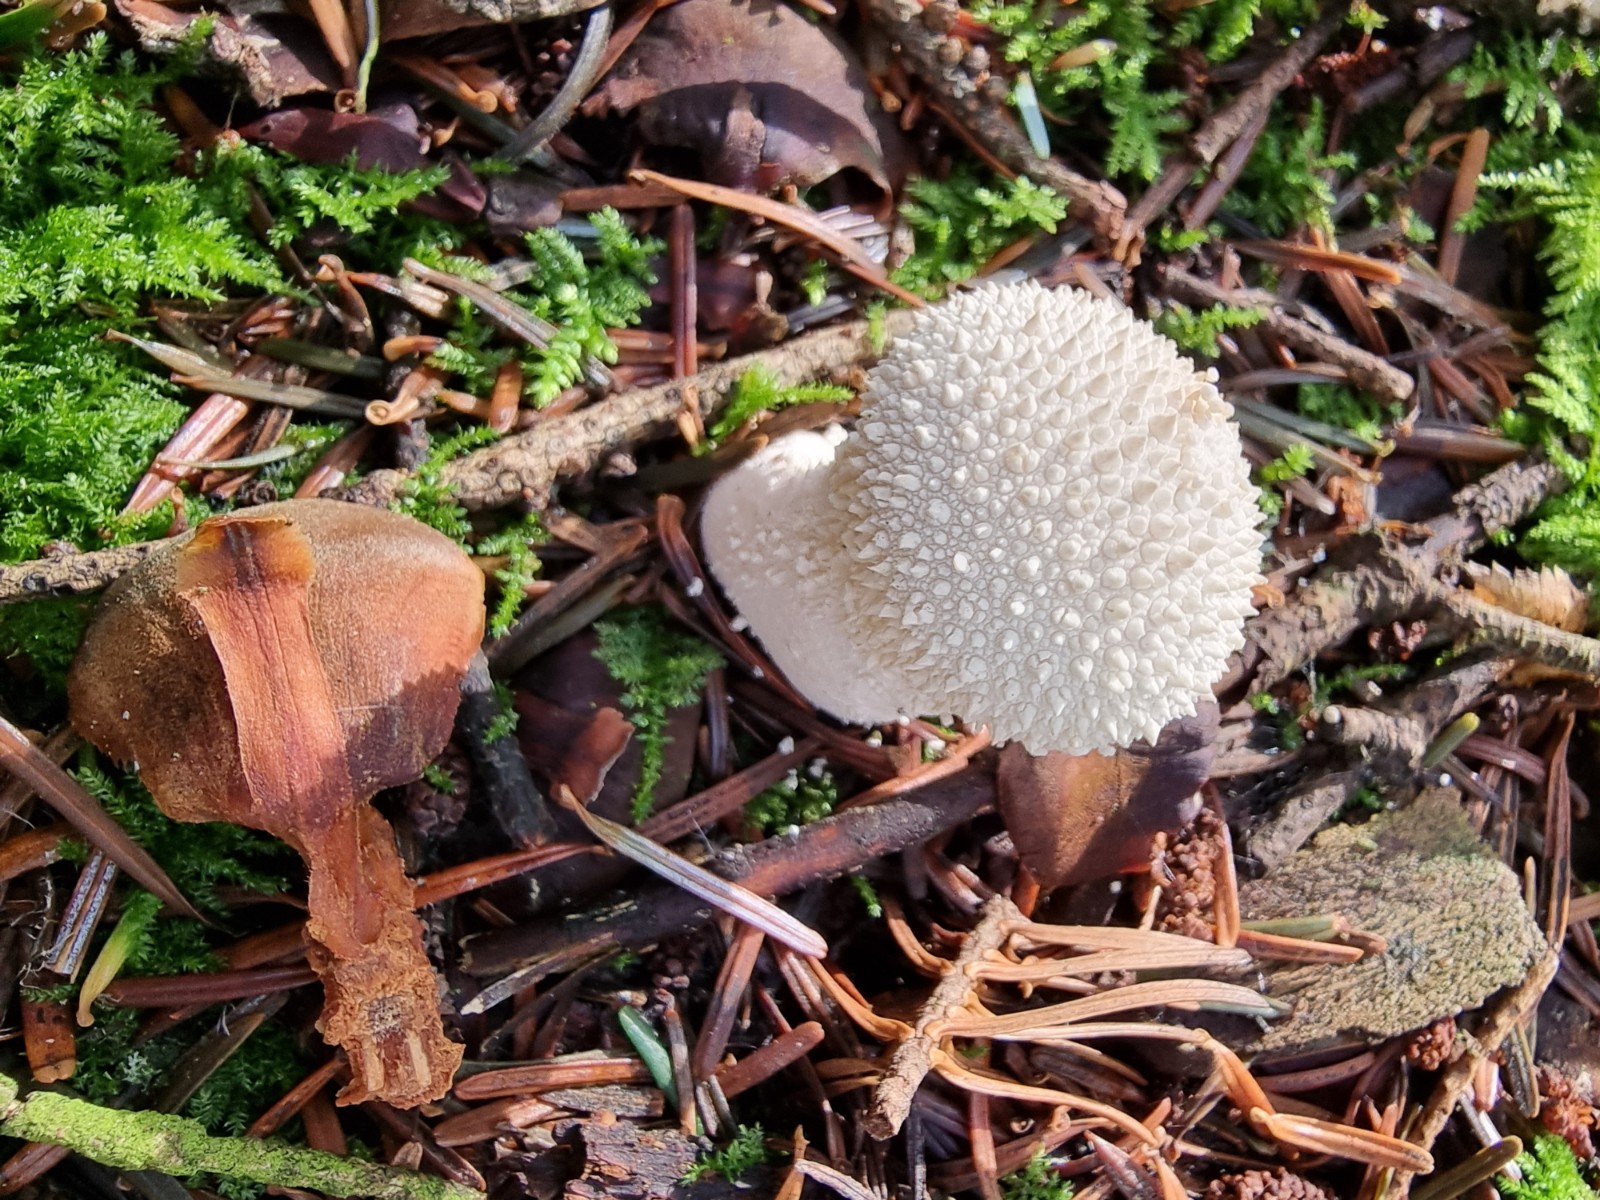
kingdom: Fungi
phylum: Basidiomycota
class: Agaricomycetes
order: Agaricales
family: Lycoperdaceae
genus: Lycoperdon
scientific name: Lycoperdon perlatum
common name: krystal-støvbold
